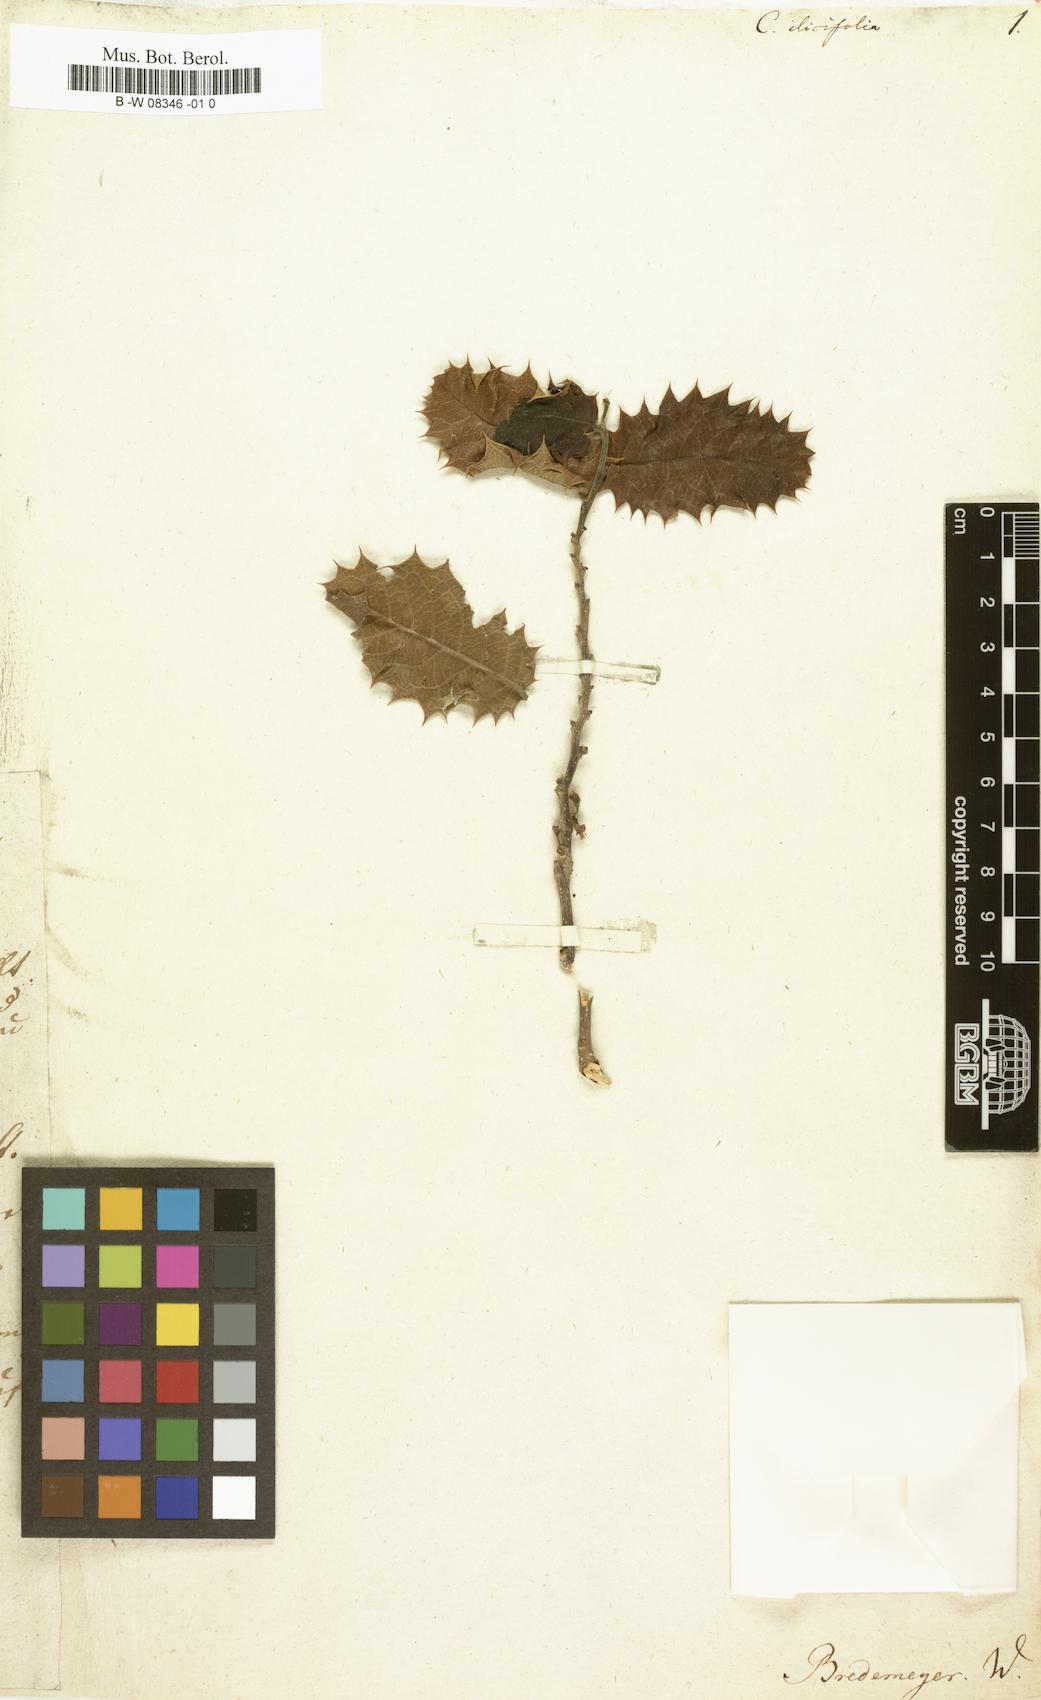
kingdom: Plantae
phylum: Tracheophyta
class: Magnoliopsida
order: Malpighiales
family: Salicaceae
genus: Casearia
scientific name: Casearia ilicifolia
